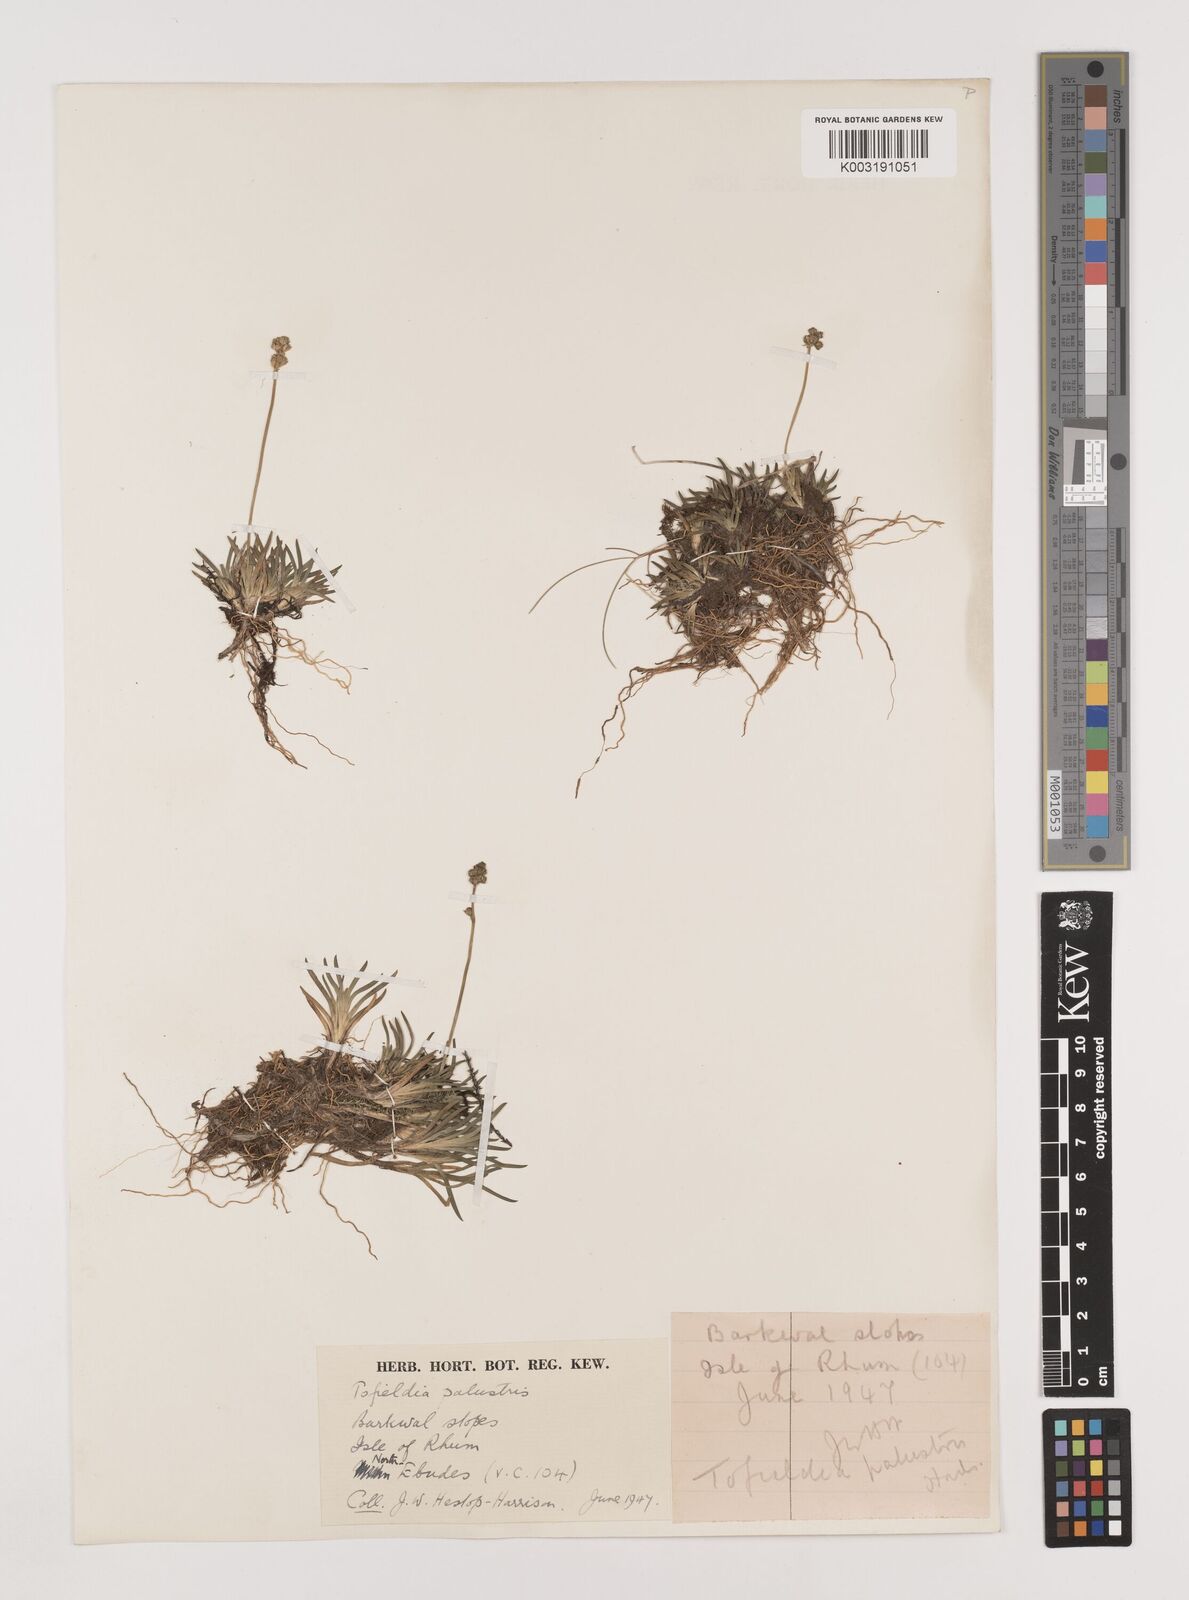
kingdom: Plantae
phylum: Tracheophyta
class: Liliopsida
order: Alismatales
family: Tofieldiaceae
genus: Tofieldia
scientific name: Tofieldia pusilla
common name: Scottish false asphodel
